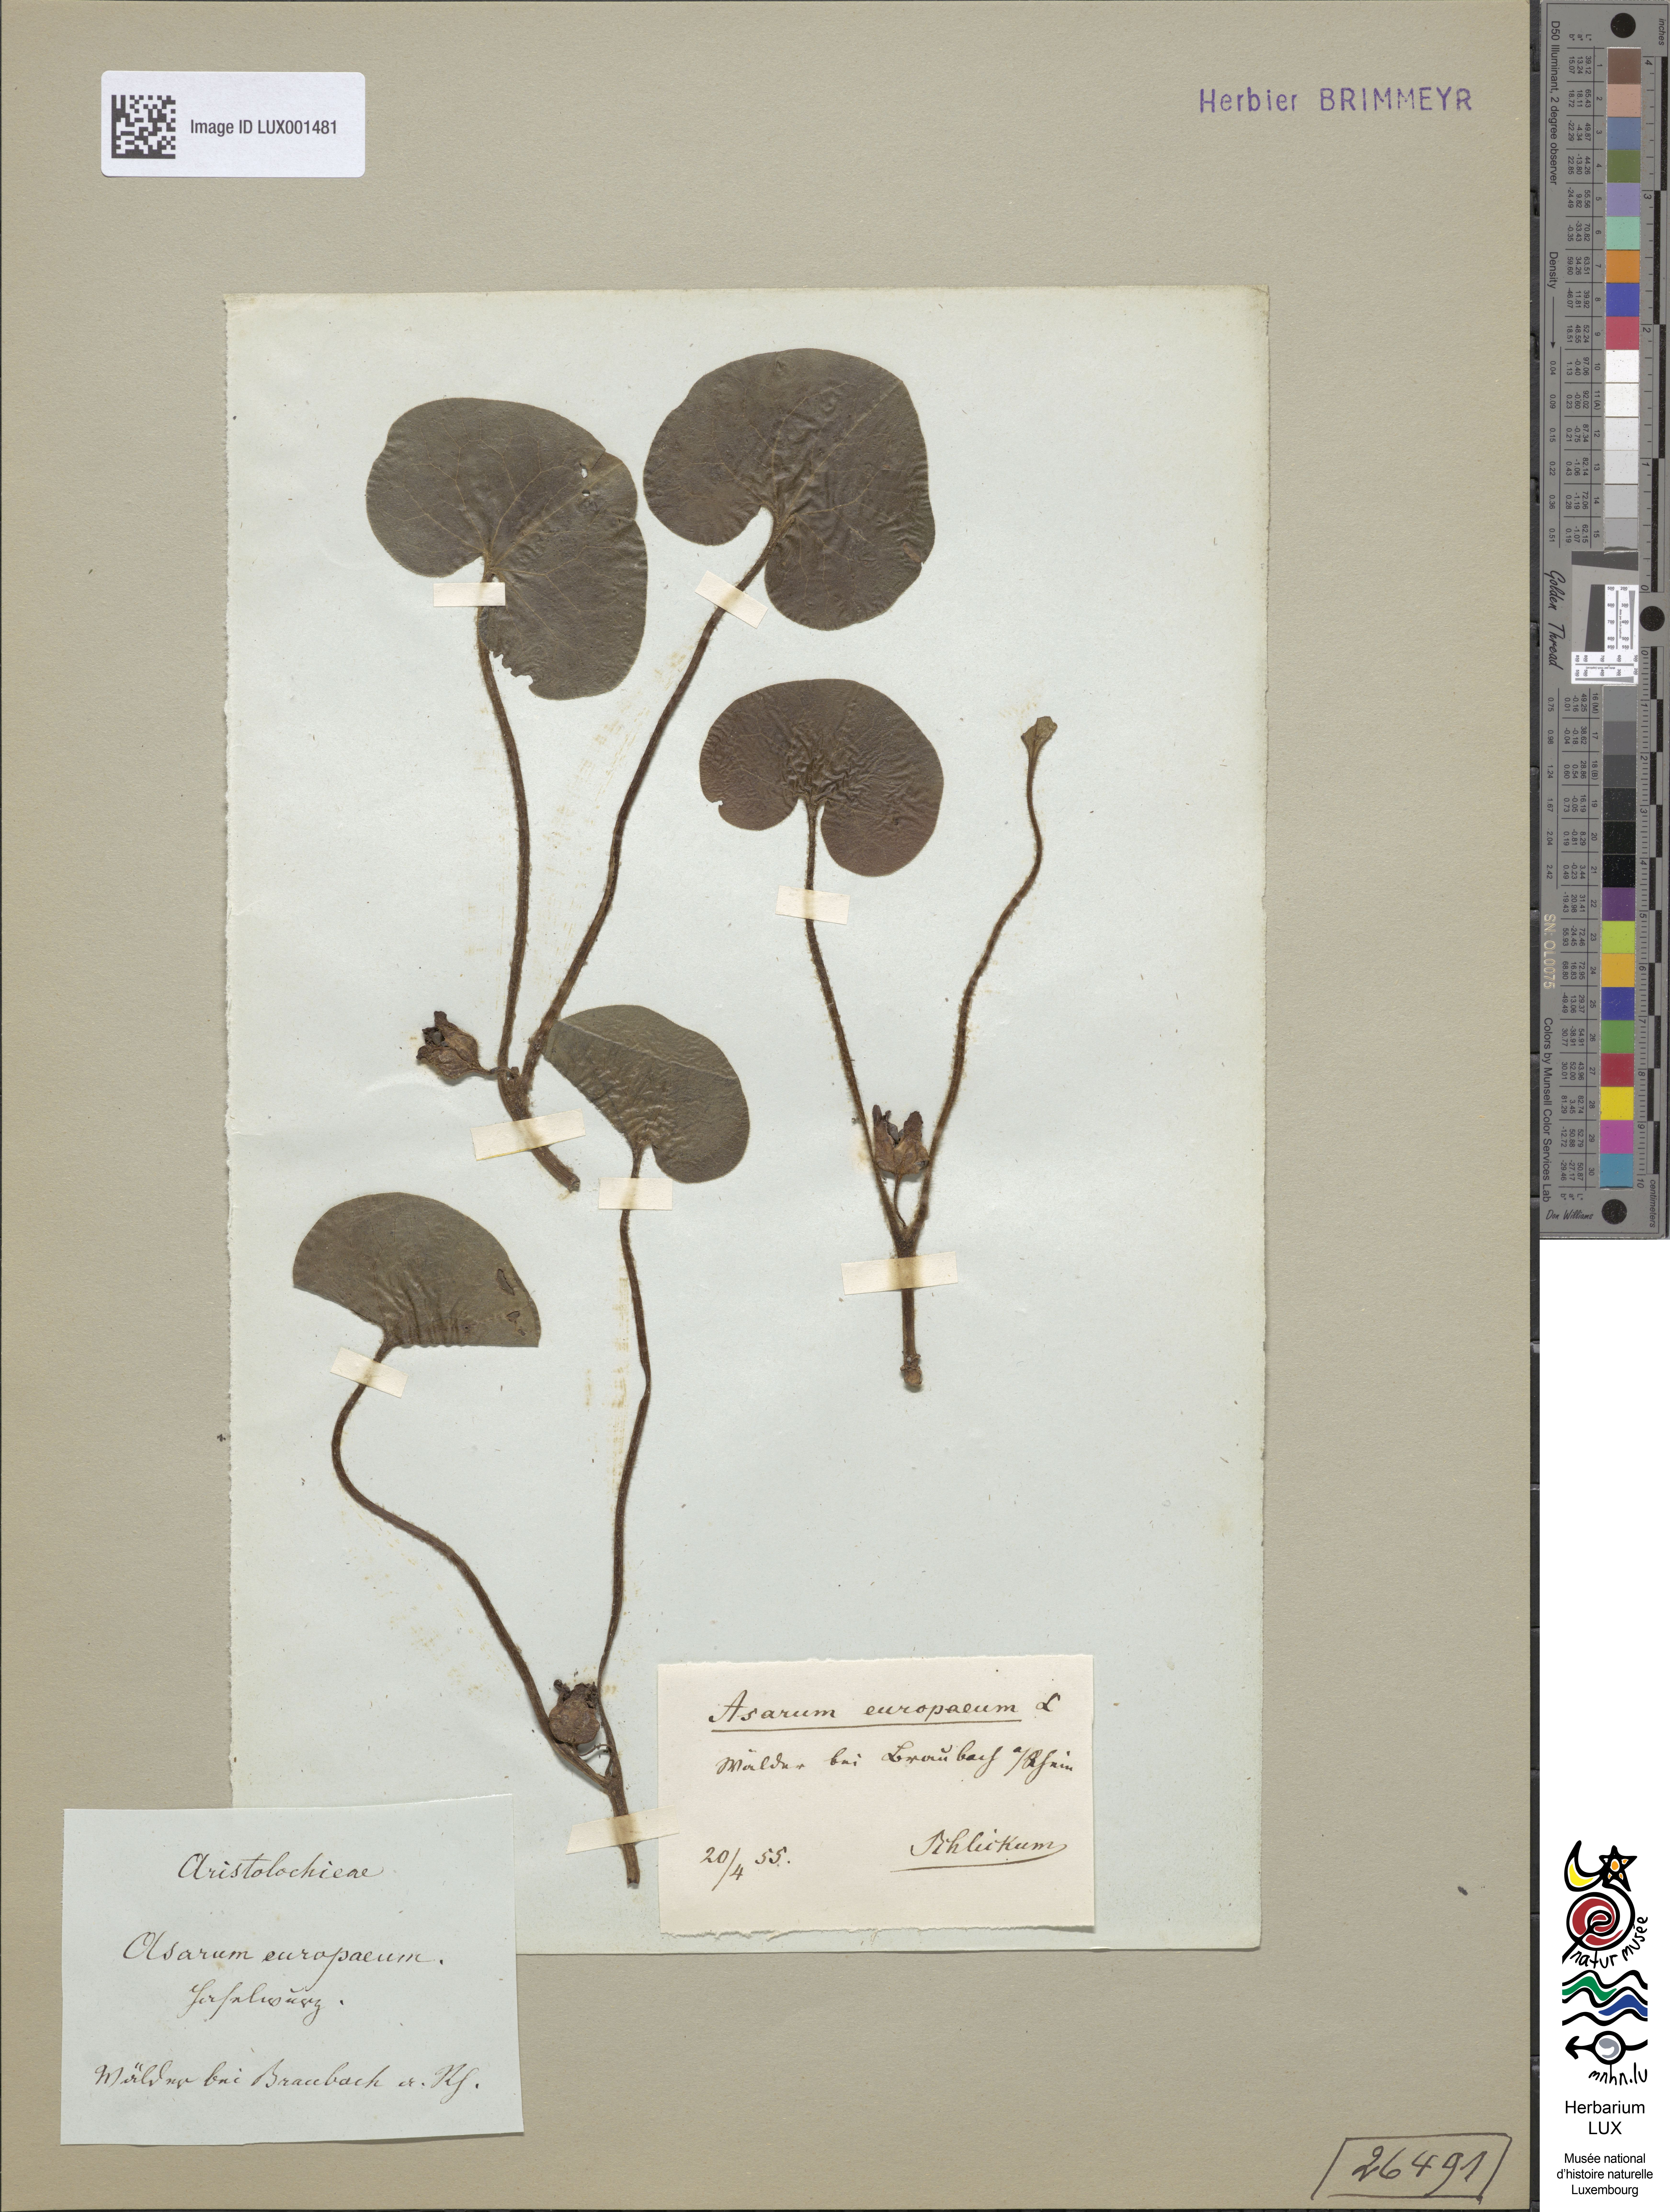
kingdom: Plantae
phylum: Tracheophyta
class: Magnoliopsida
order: Piperales
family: Aristolochiaceae
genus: Asarum
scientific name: Asarum europaeum
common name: Asarabacca
